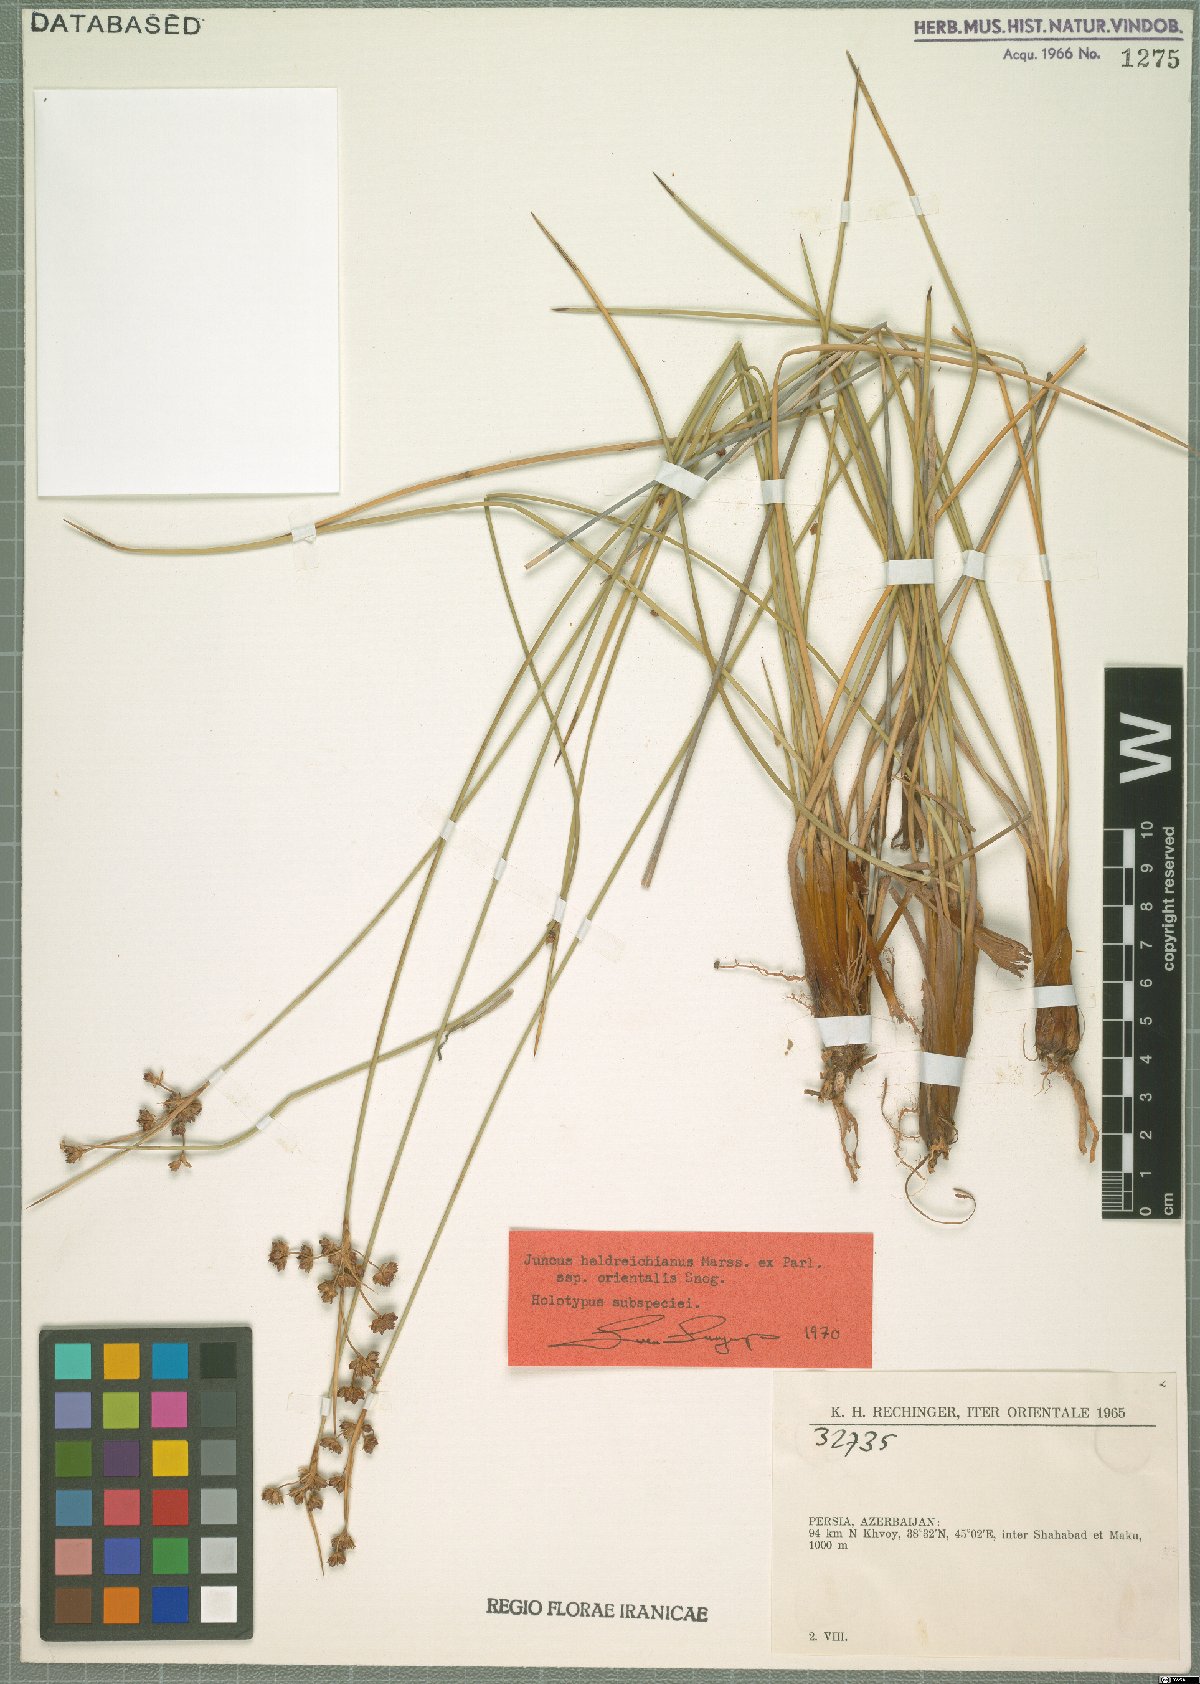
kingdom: Plantae
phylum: Tracheophyta
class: Liliopsida
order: Poales
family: Juncaceae
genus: Juncus
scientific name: Juncus heldreichianus
